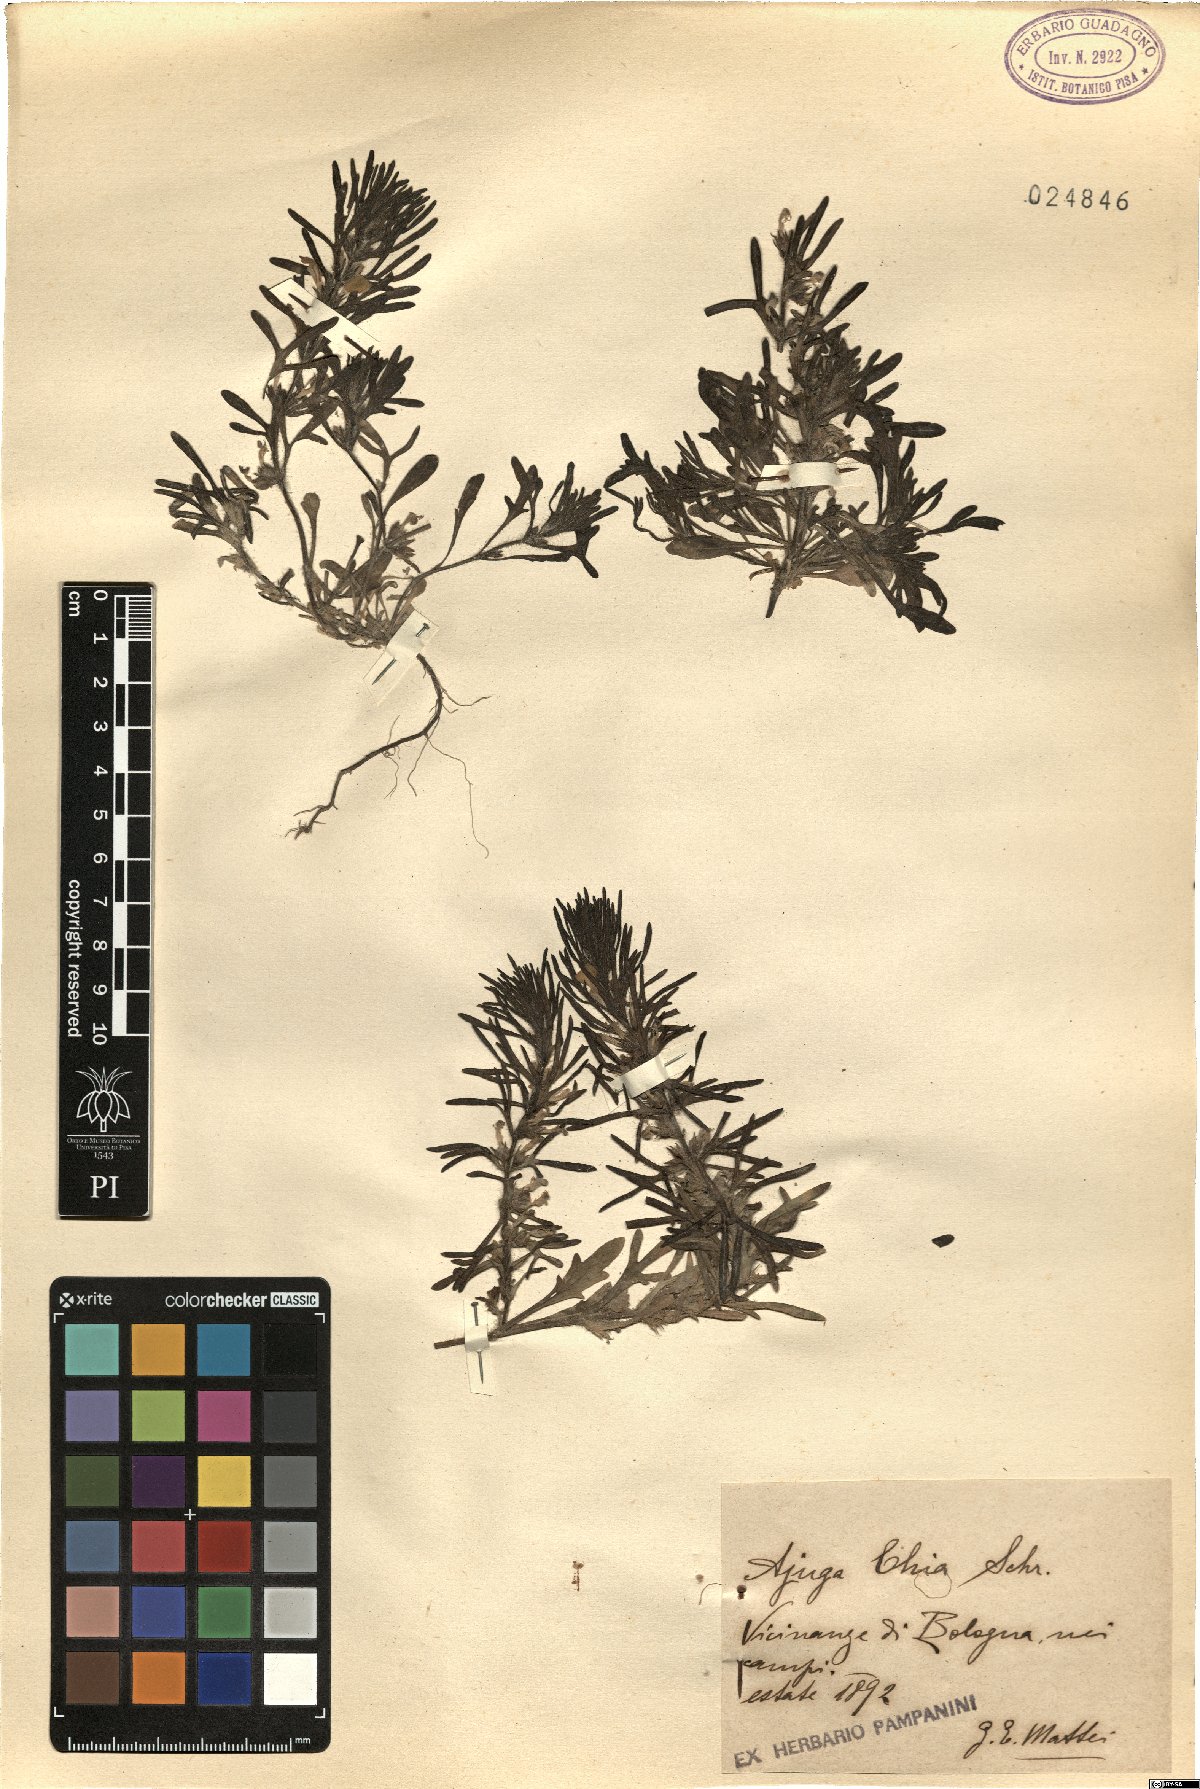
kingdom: Plantae
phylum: Tracheophyta
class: Magnoliopsida
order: Lamiales
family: Lamiaceae
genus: Ajuga
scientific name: Ajuga chamaepitys
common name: Ground-pine
